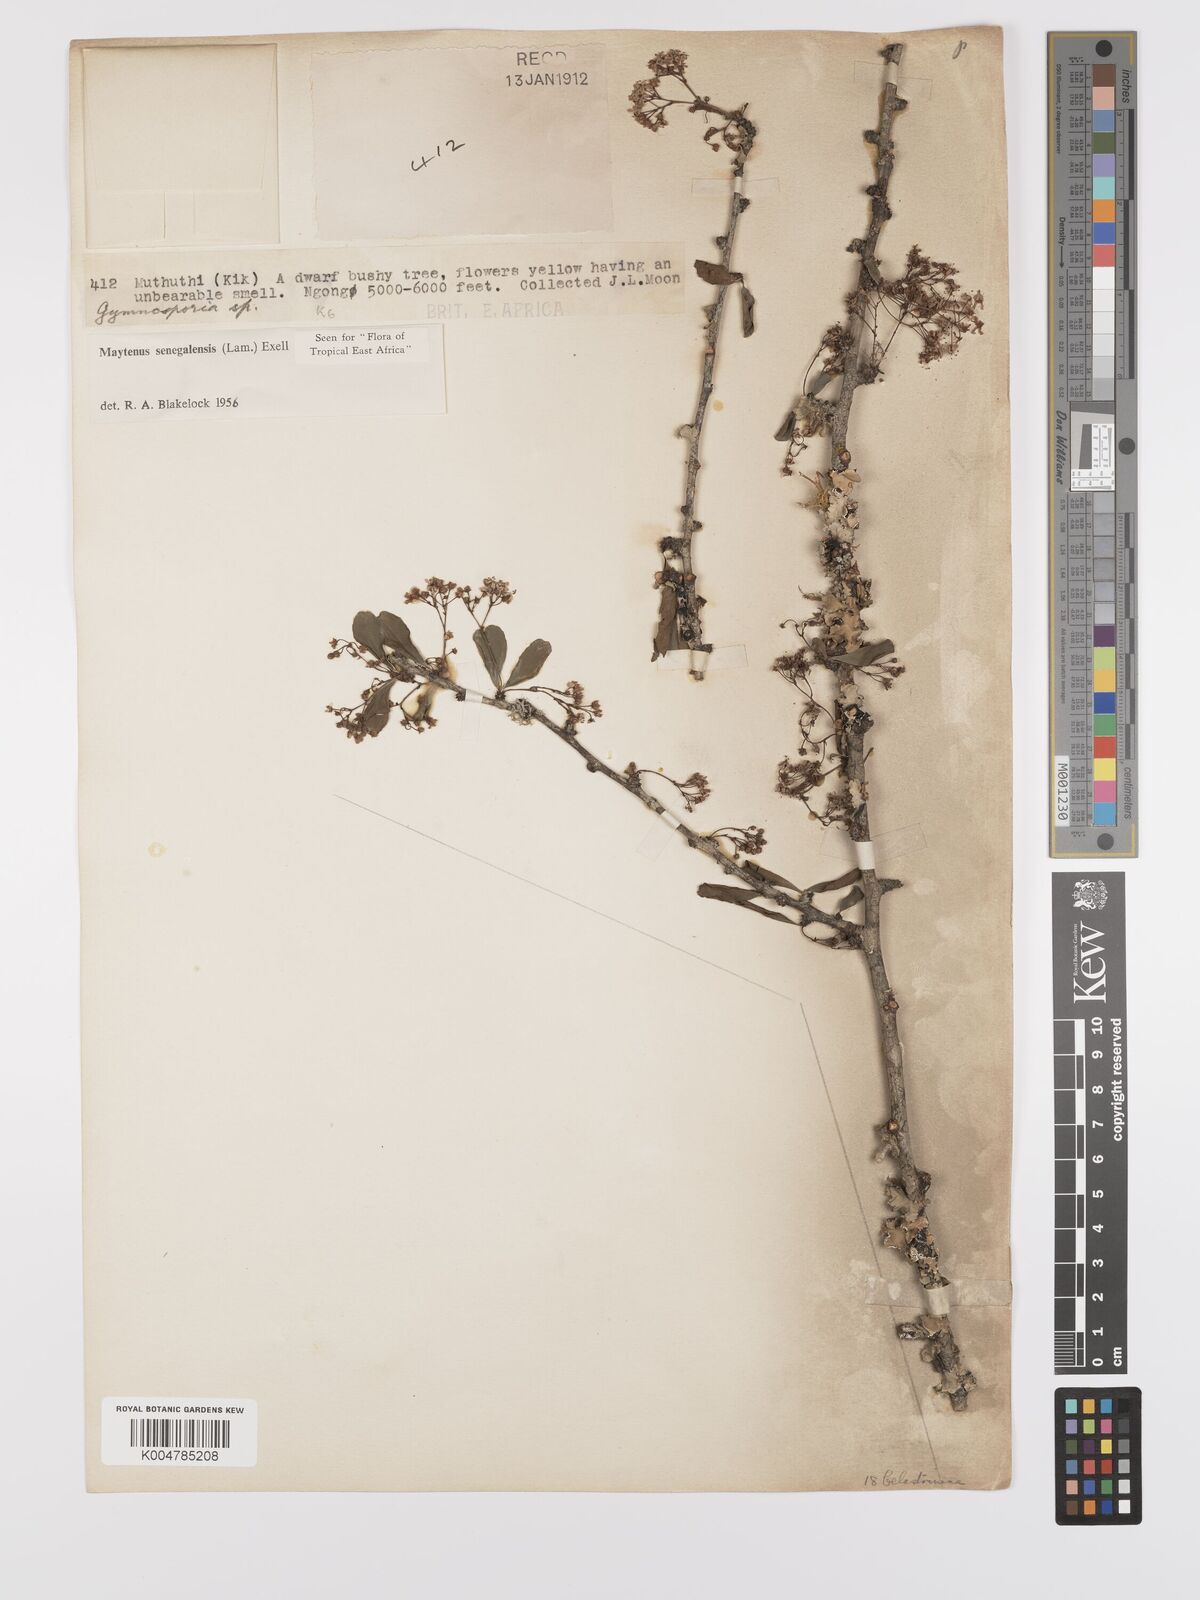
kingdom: Plantae
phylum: Tracheophyta
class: Magnoliopsida
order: Celastrales
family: Celastraceae
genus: Gymnosporia
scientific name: Gymnosporia heterophylla
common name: Angle-stem spikethorn
